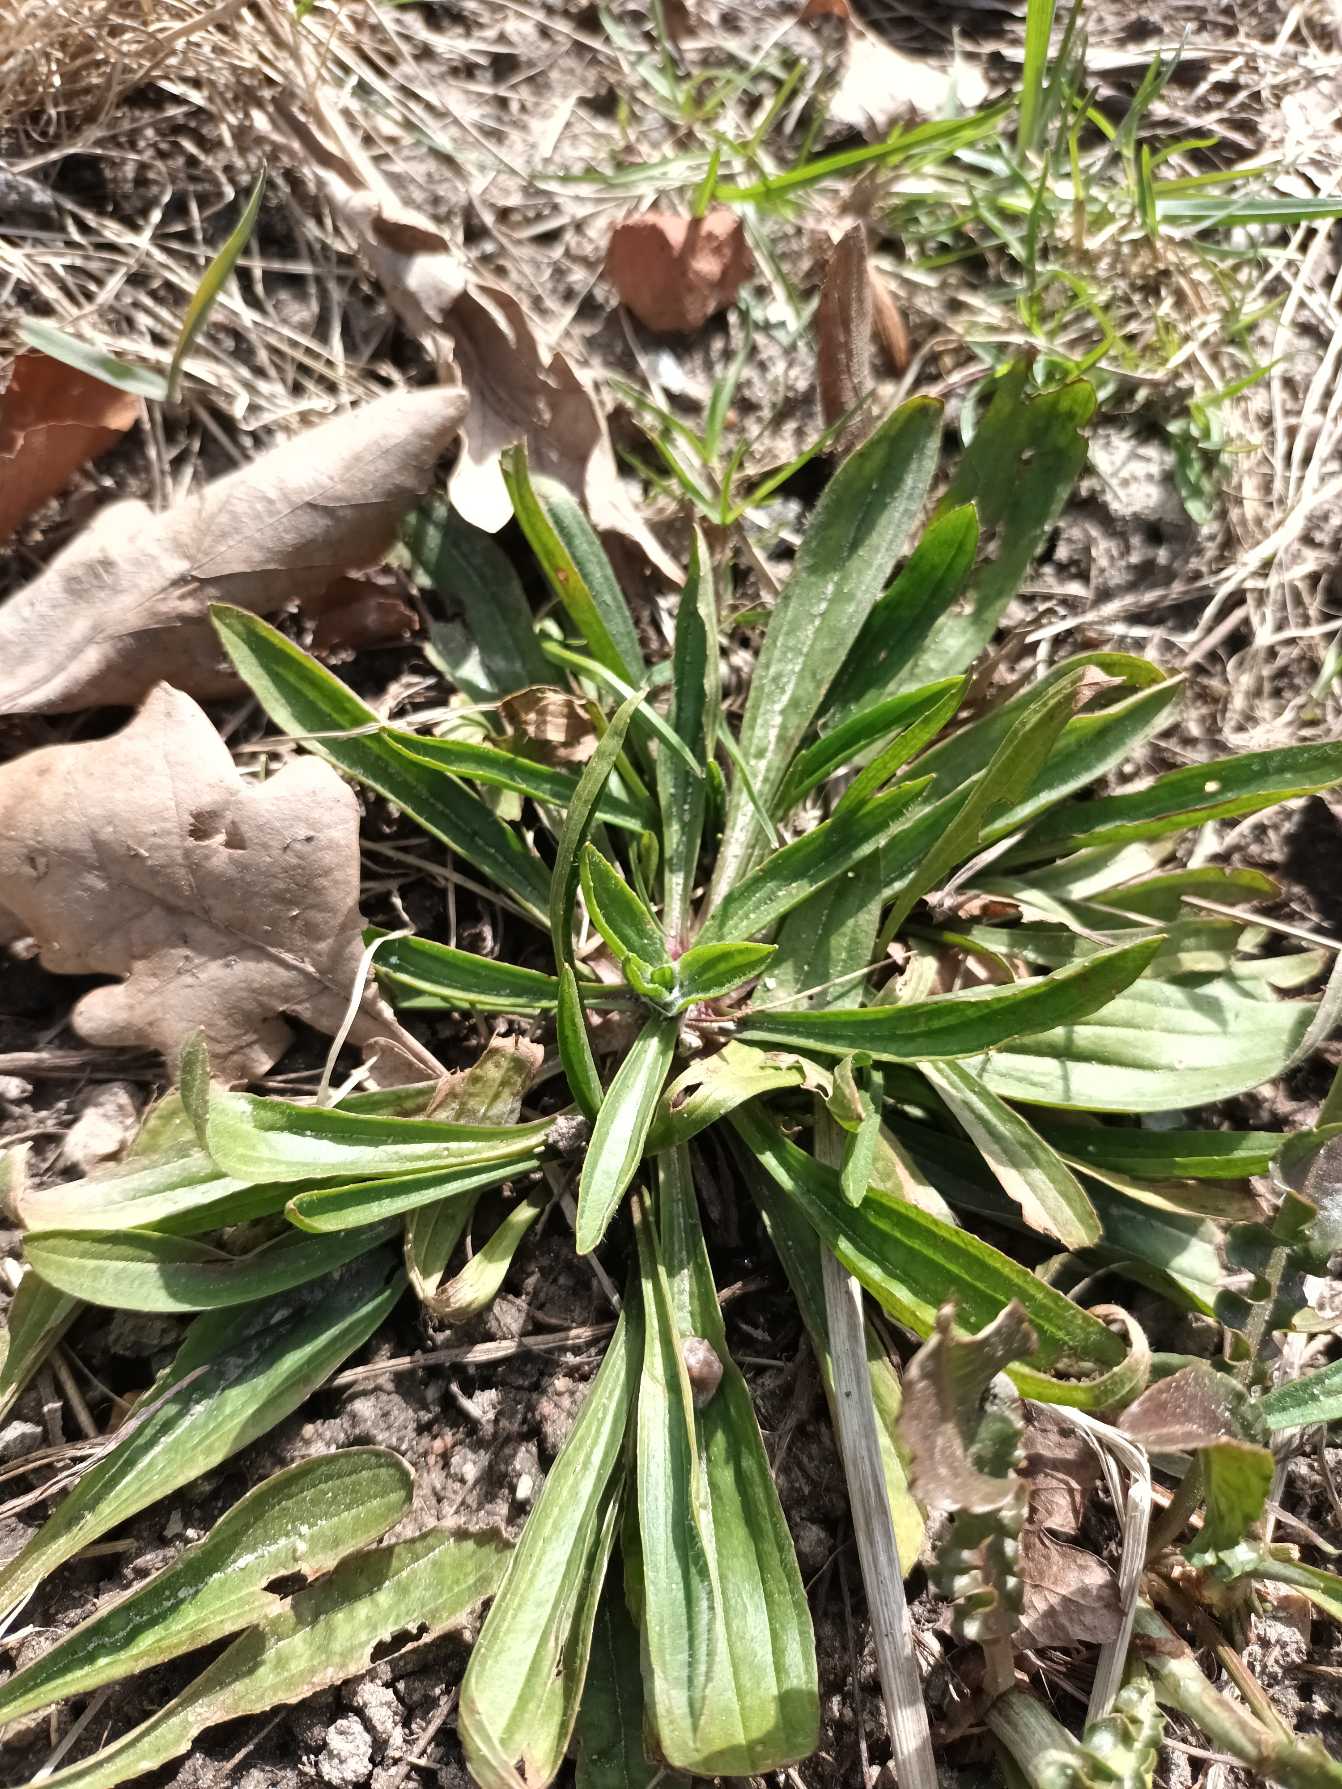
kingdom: Plantae
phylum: Tracheophyta
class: Magnoliopsida
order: Lamiales
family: Plantaginaceae
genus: Plantago
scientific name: Plantago lanceolata
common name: Lancet-vejbred
